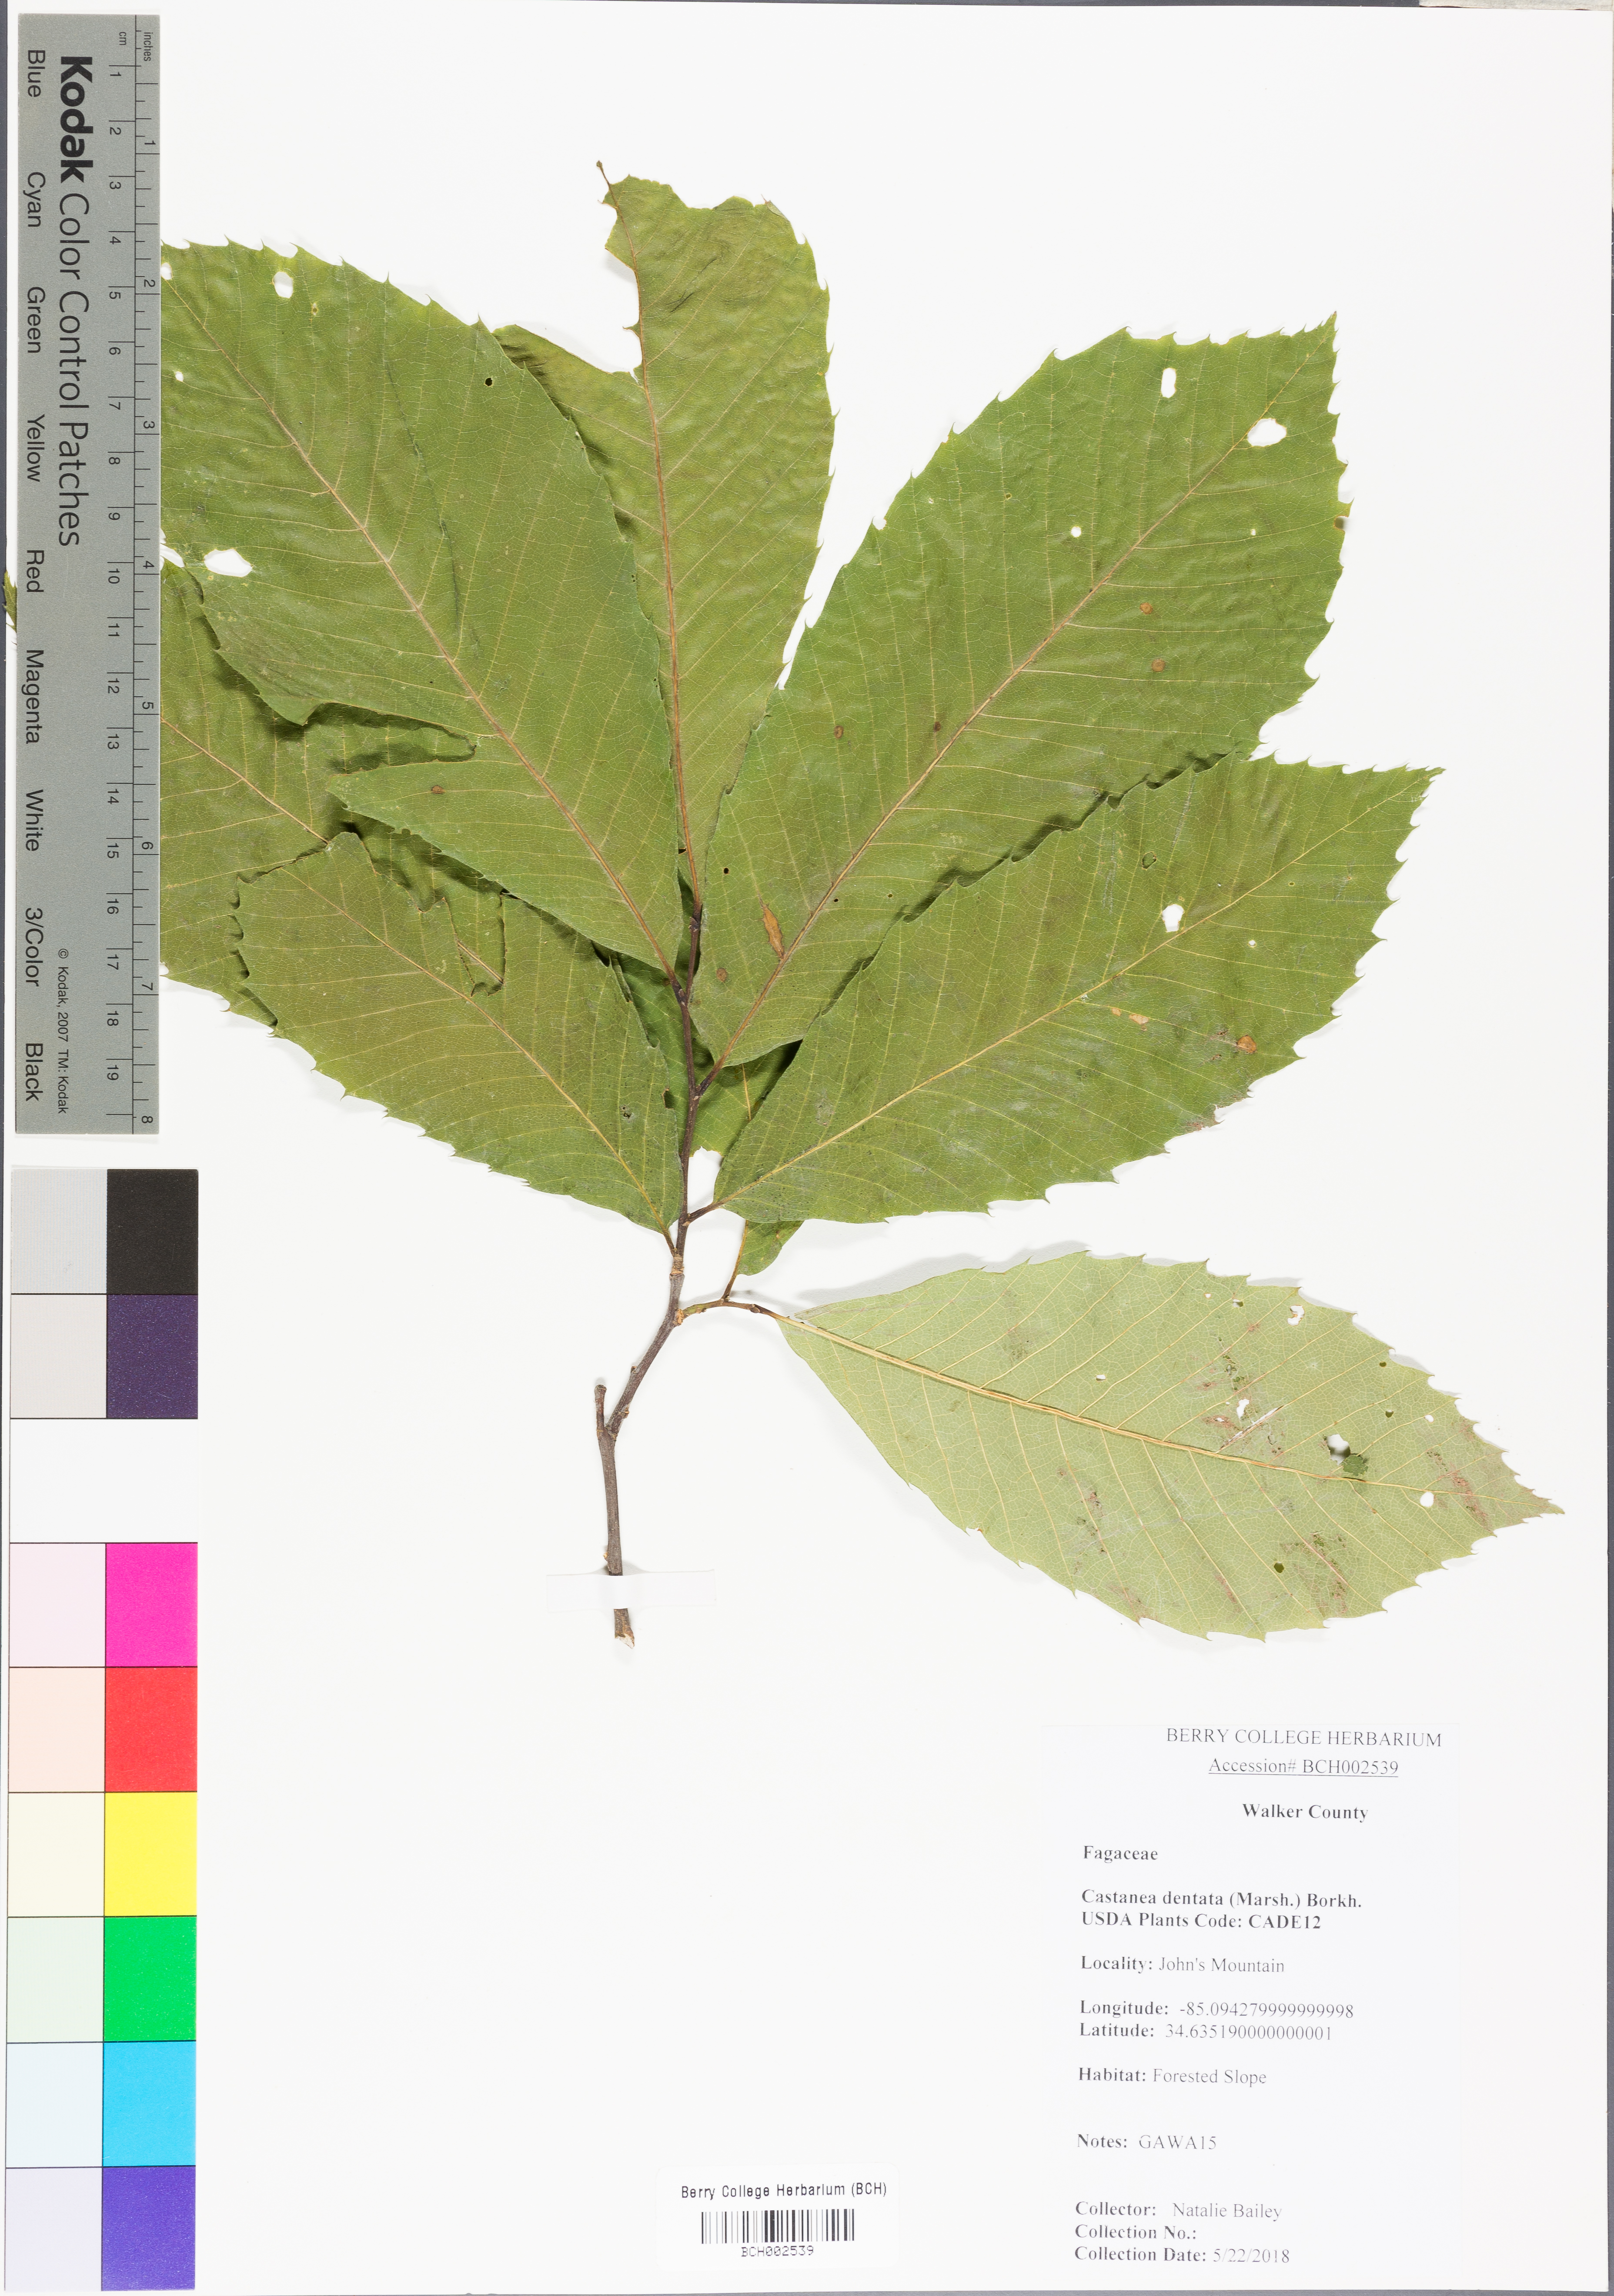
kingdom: Plantae
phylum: Tracheophyta
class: Magnoliopsida
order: Fagales
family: Fagaceae
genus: Castanea
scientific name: Castanea dentata
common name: American chestnut
